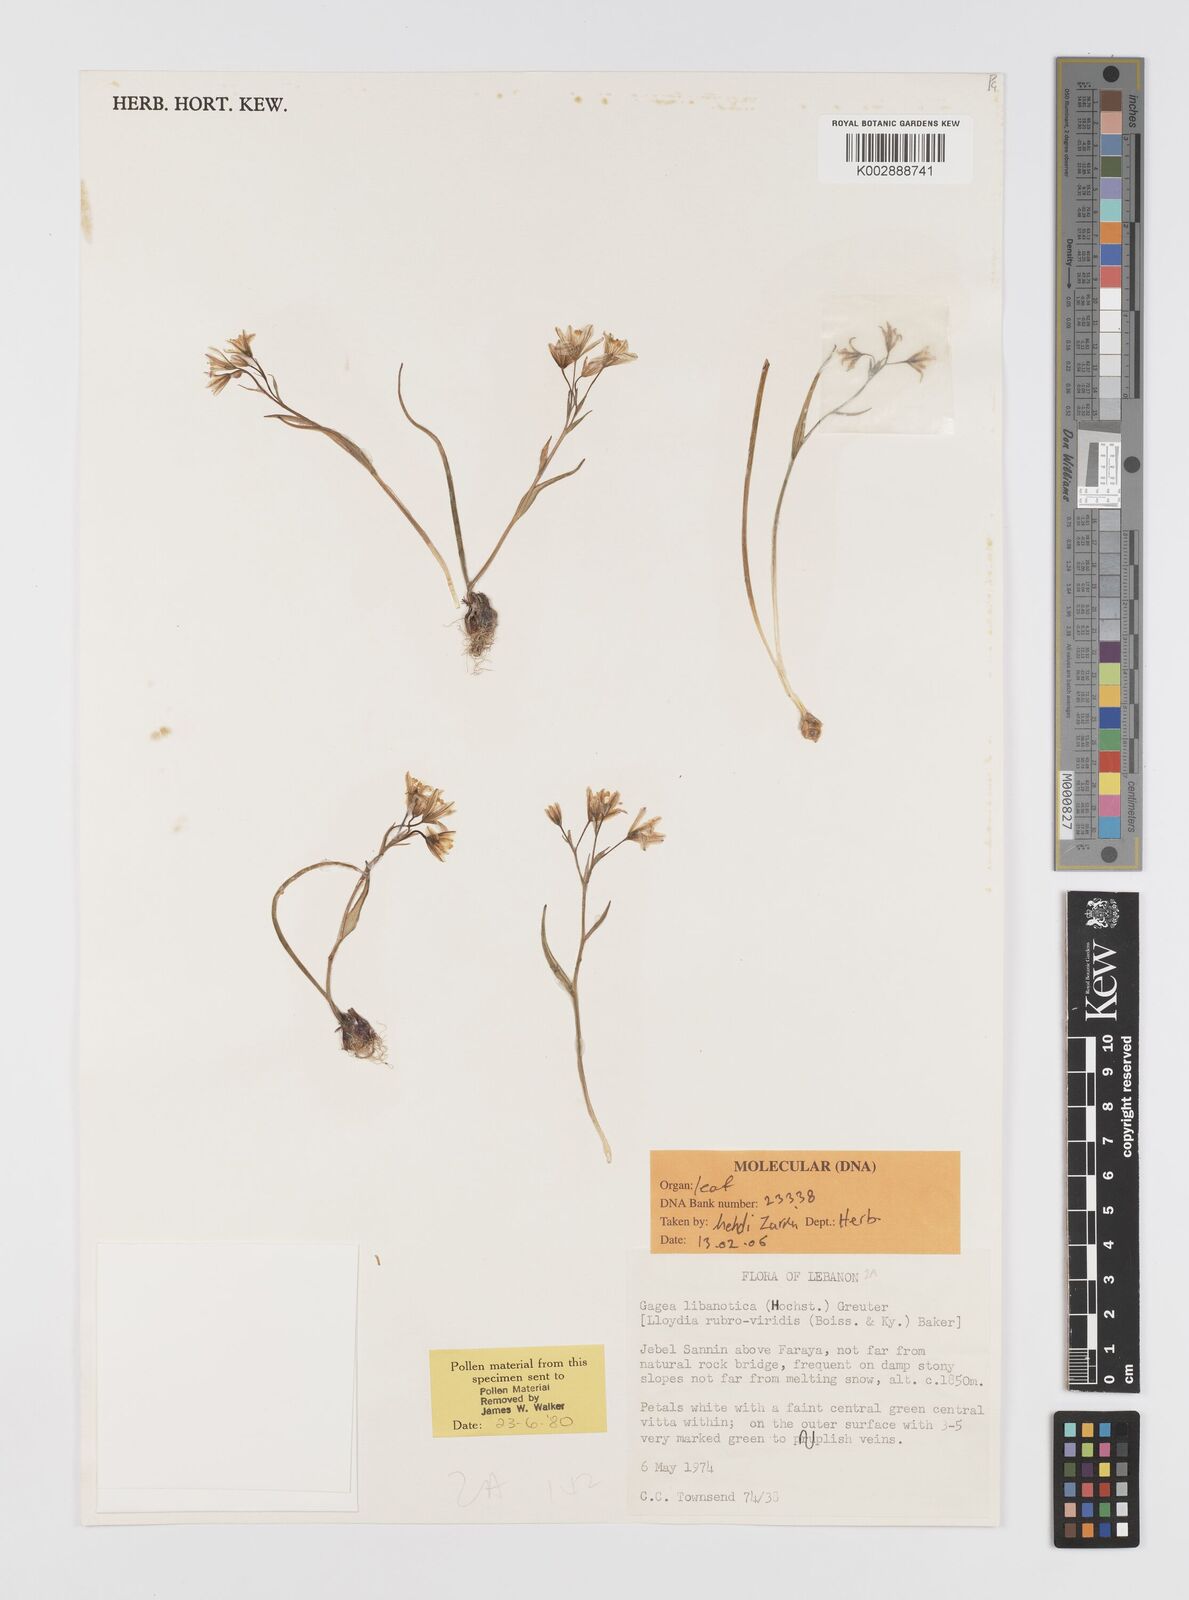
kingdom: Plantae
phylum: Tracheophyta
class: Liliopsida
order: Liliales
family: Liliaceae
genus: Gagea
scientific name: Gagea libanotica
